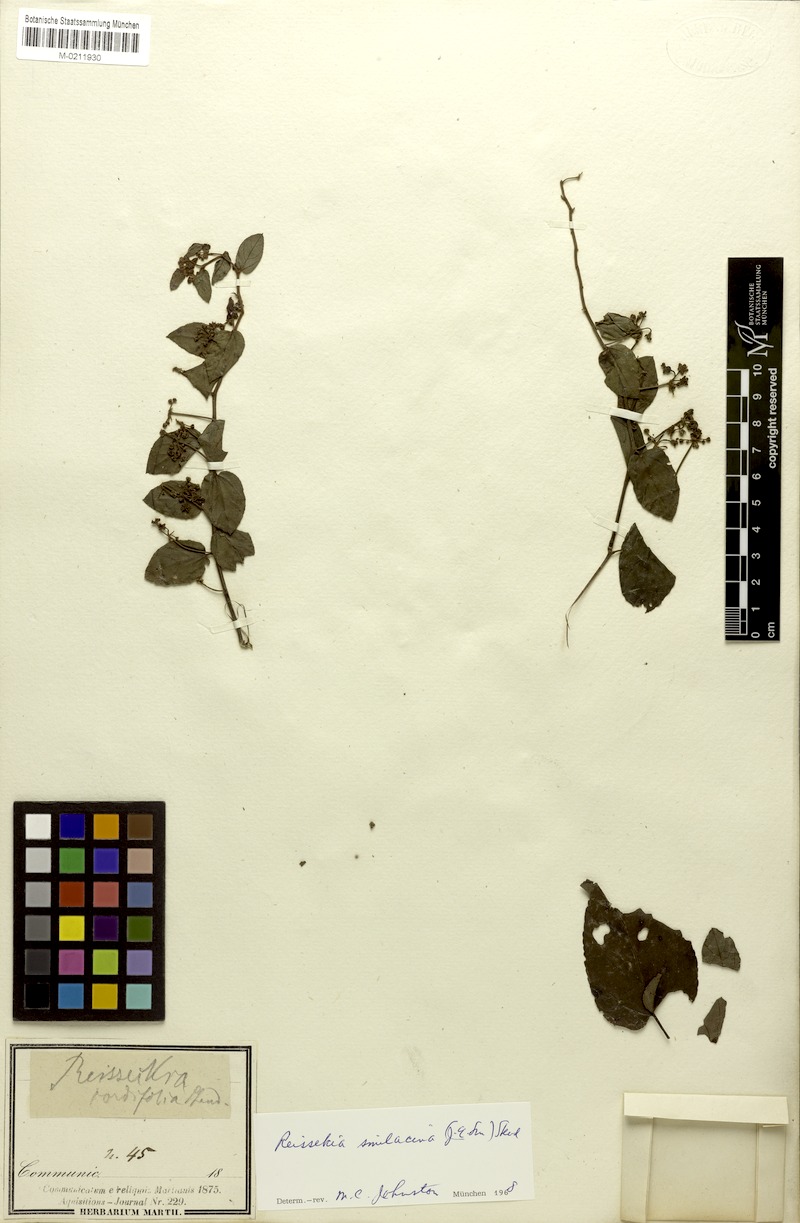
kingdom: Plantae
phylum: Tracheophyta
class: Magnoliopsida
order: Rosales
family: Rhamnaceae
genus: Reissekia
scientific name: Reissekia smilacina
